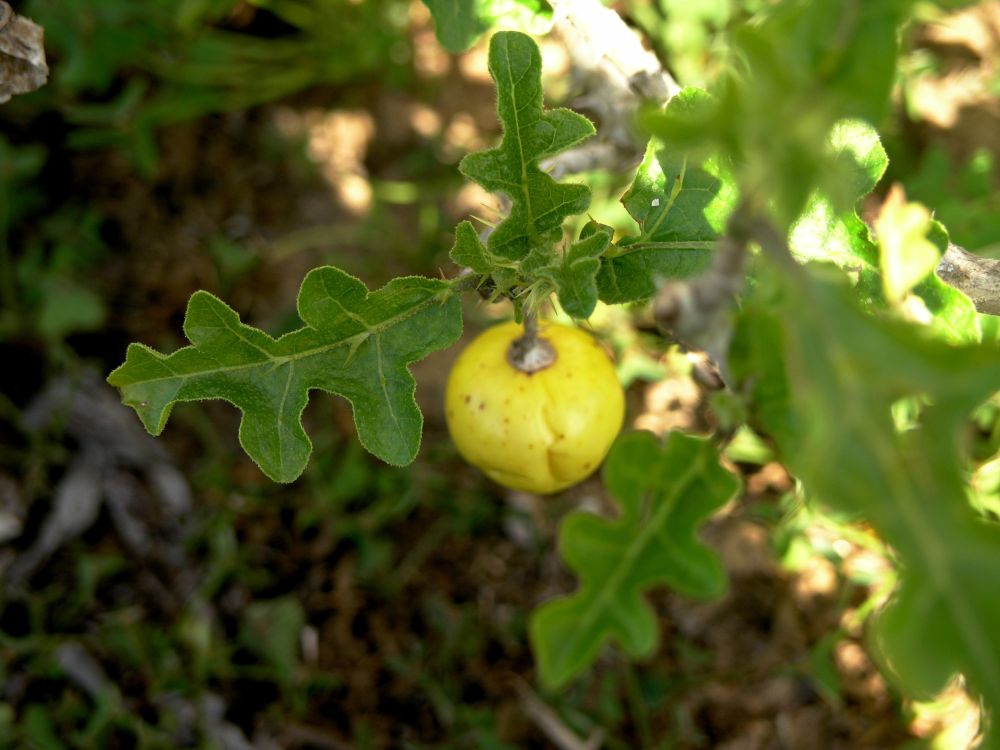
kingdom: Plantae
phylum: Tracheophyta
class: Magnoliopsida
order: Solanales
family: Solanaceae
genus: Solanum
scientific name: Solanum linnaeanum
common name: Nightshade
